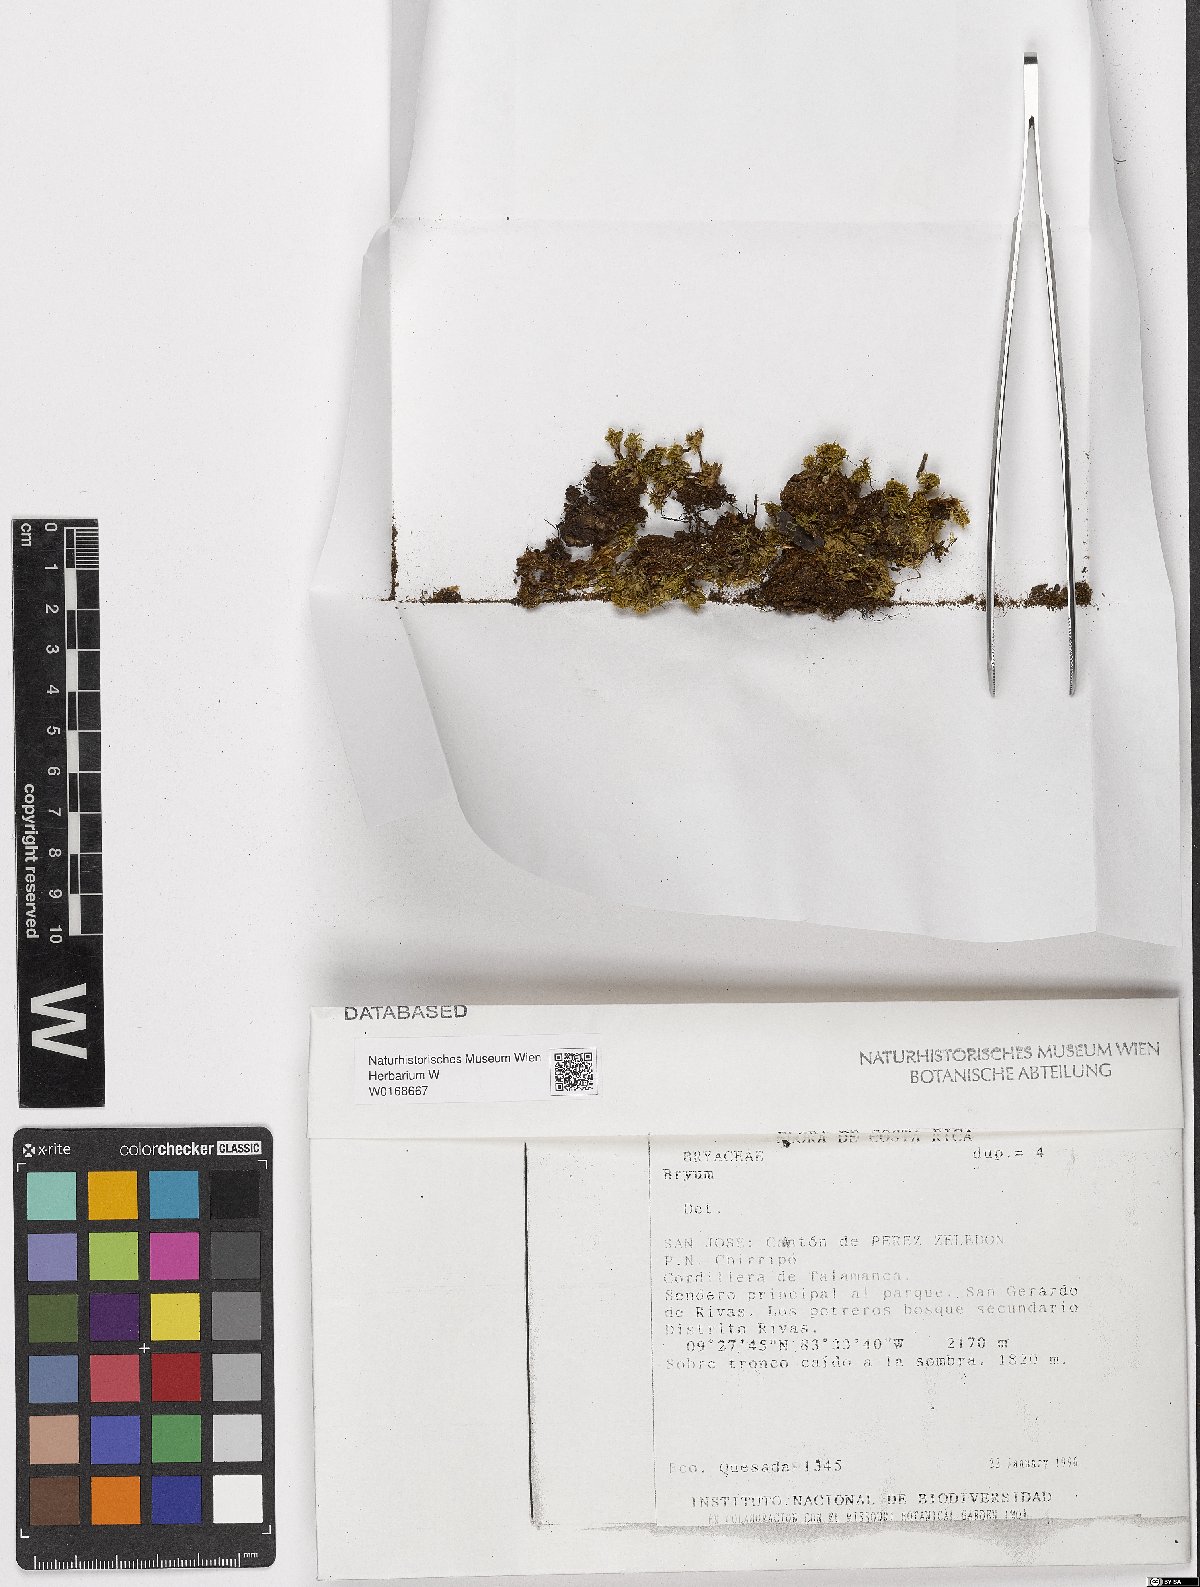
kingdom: Plantae
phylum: Bryophyta
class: Bryopsida
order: Bryales
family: Bryaceae
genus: Bryum
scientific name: Bryum
